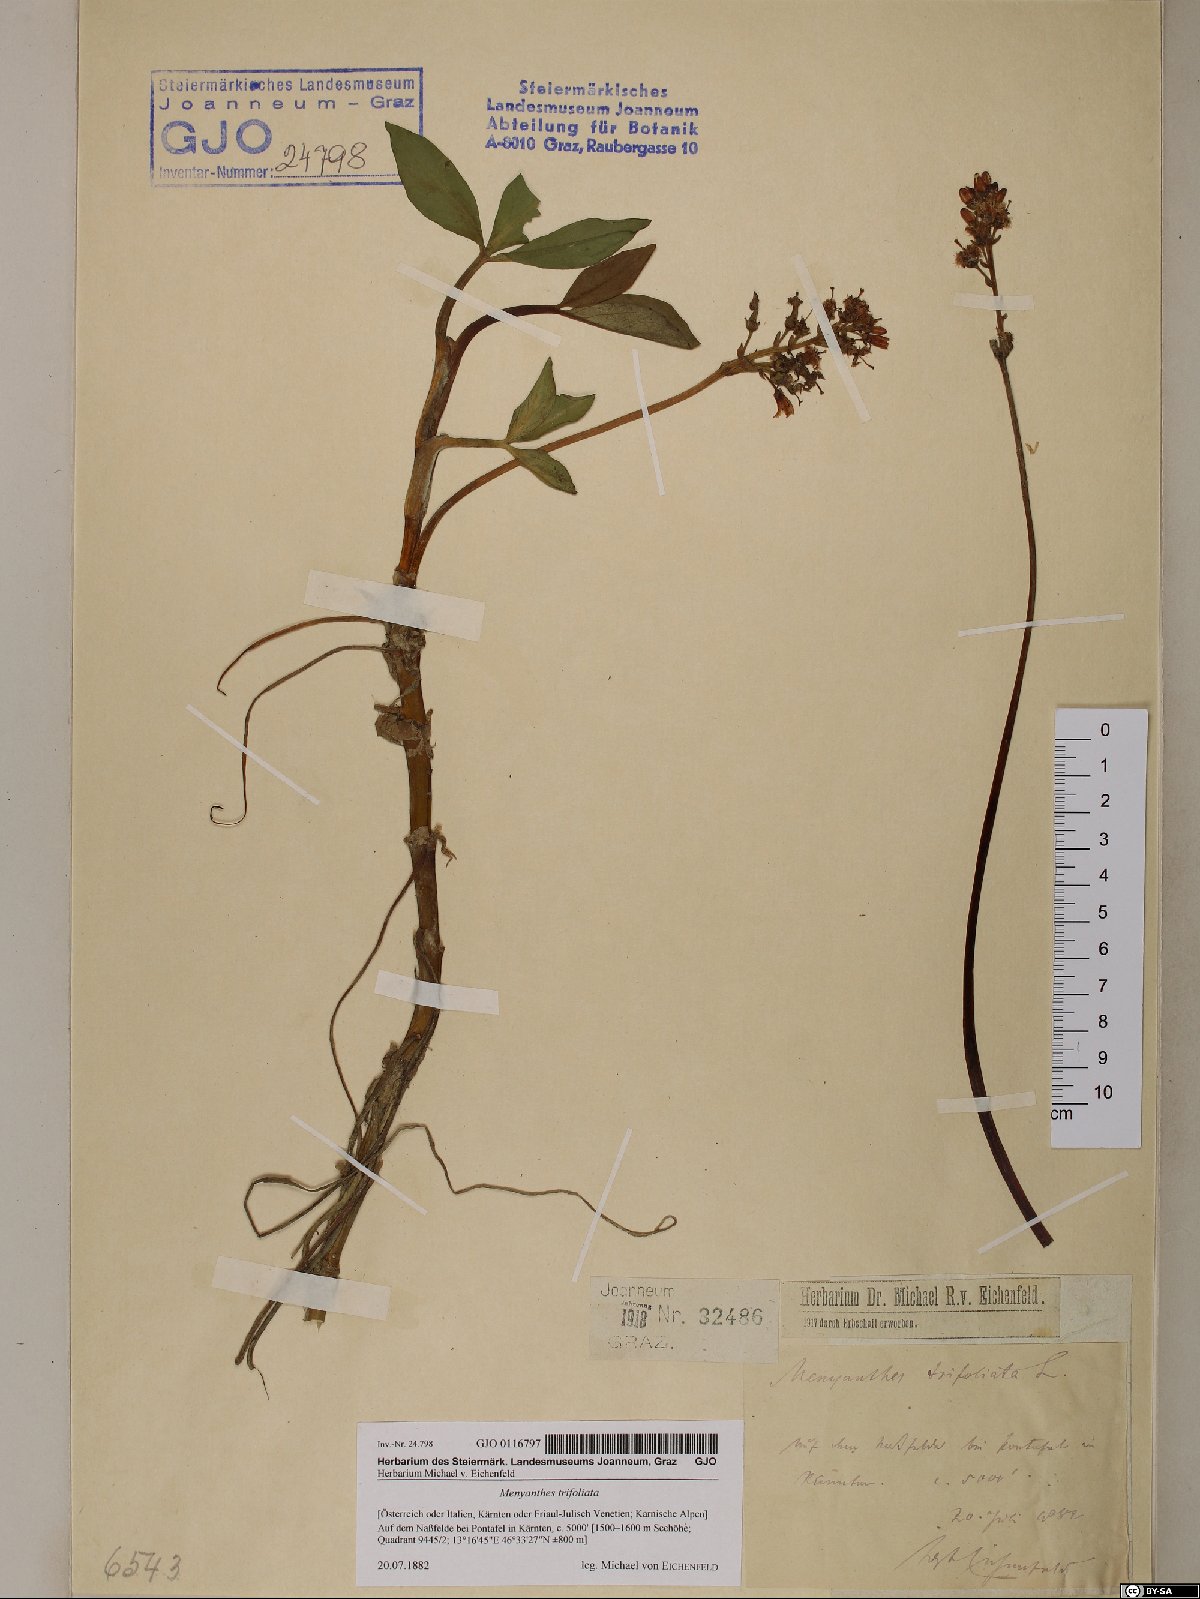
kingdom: Plantae
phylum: Tracheophyta
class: Magnoliopsida
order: Asterales
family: Menyanthaceae
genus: Menyanthes
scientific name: Menyanthes trifoliata
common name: Bogbean
